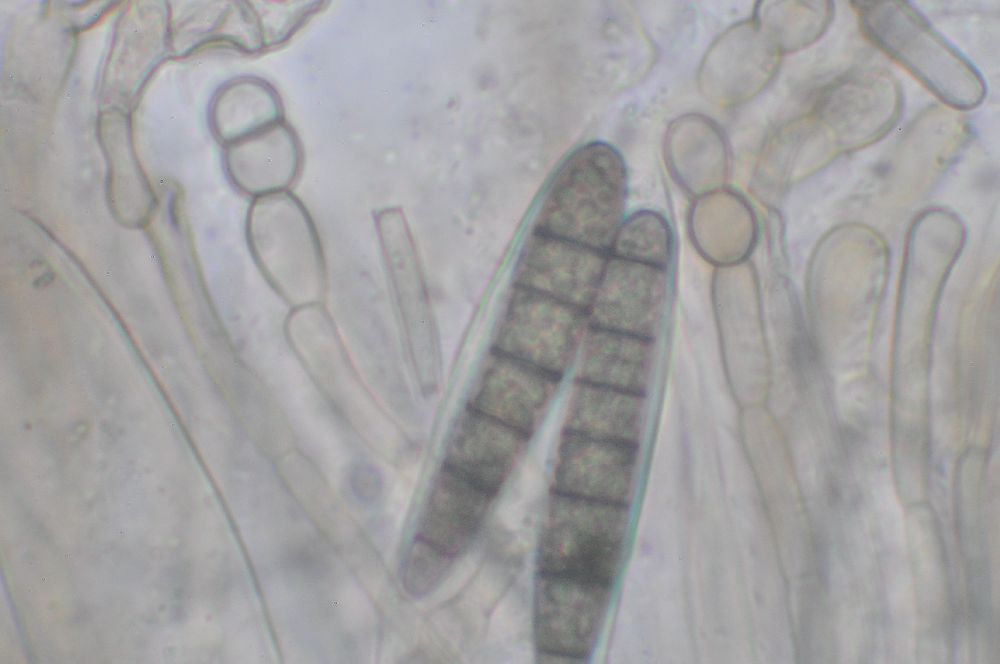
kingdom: Fungi
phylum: Ascomycota
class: Geoglossomycetes
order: Geoglossales
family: Geoglossaceae
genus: Geoglossum
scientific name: Geoglossum cookeianum
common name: bred jordtunge
